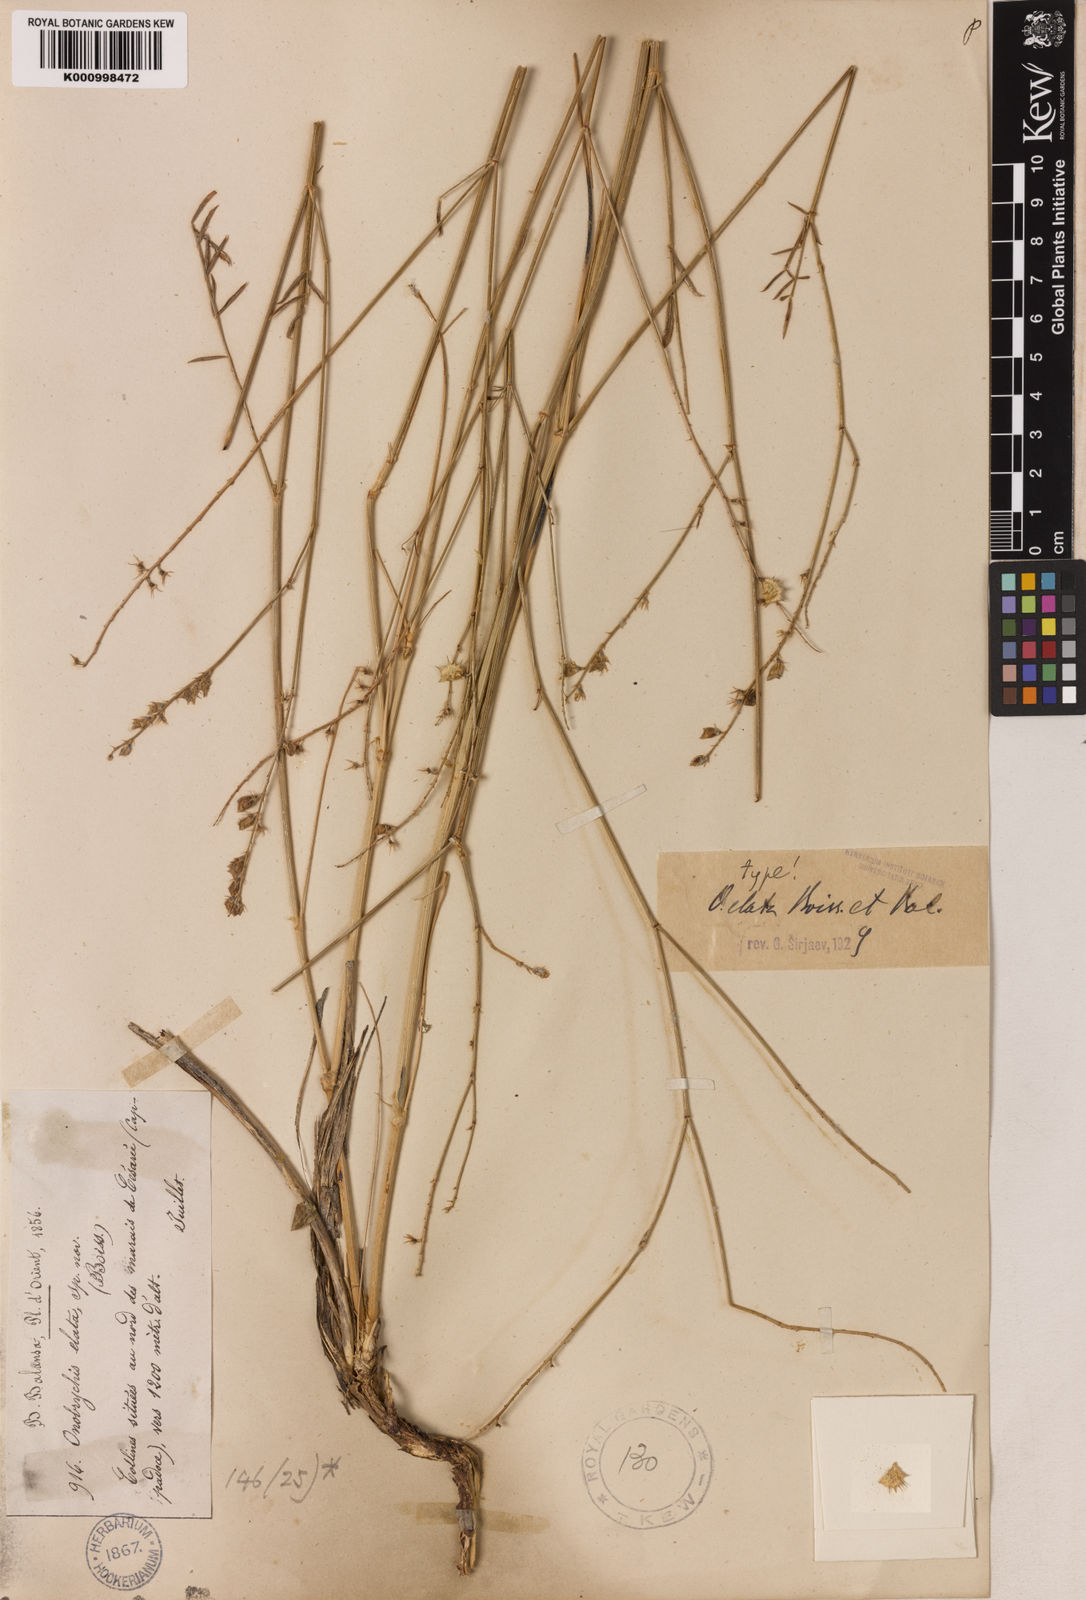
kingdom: Plantae
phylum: Tracheophyta
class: Magnoliopsida
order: Fabales
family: Fabaceae
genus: Onobrychis
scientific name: Onobrychis elata
